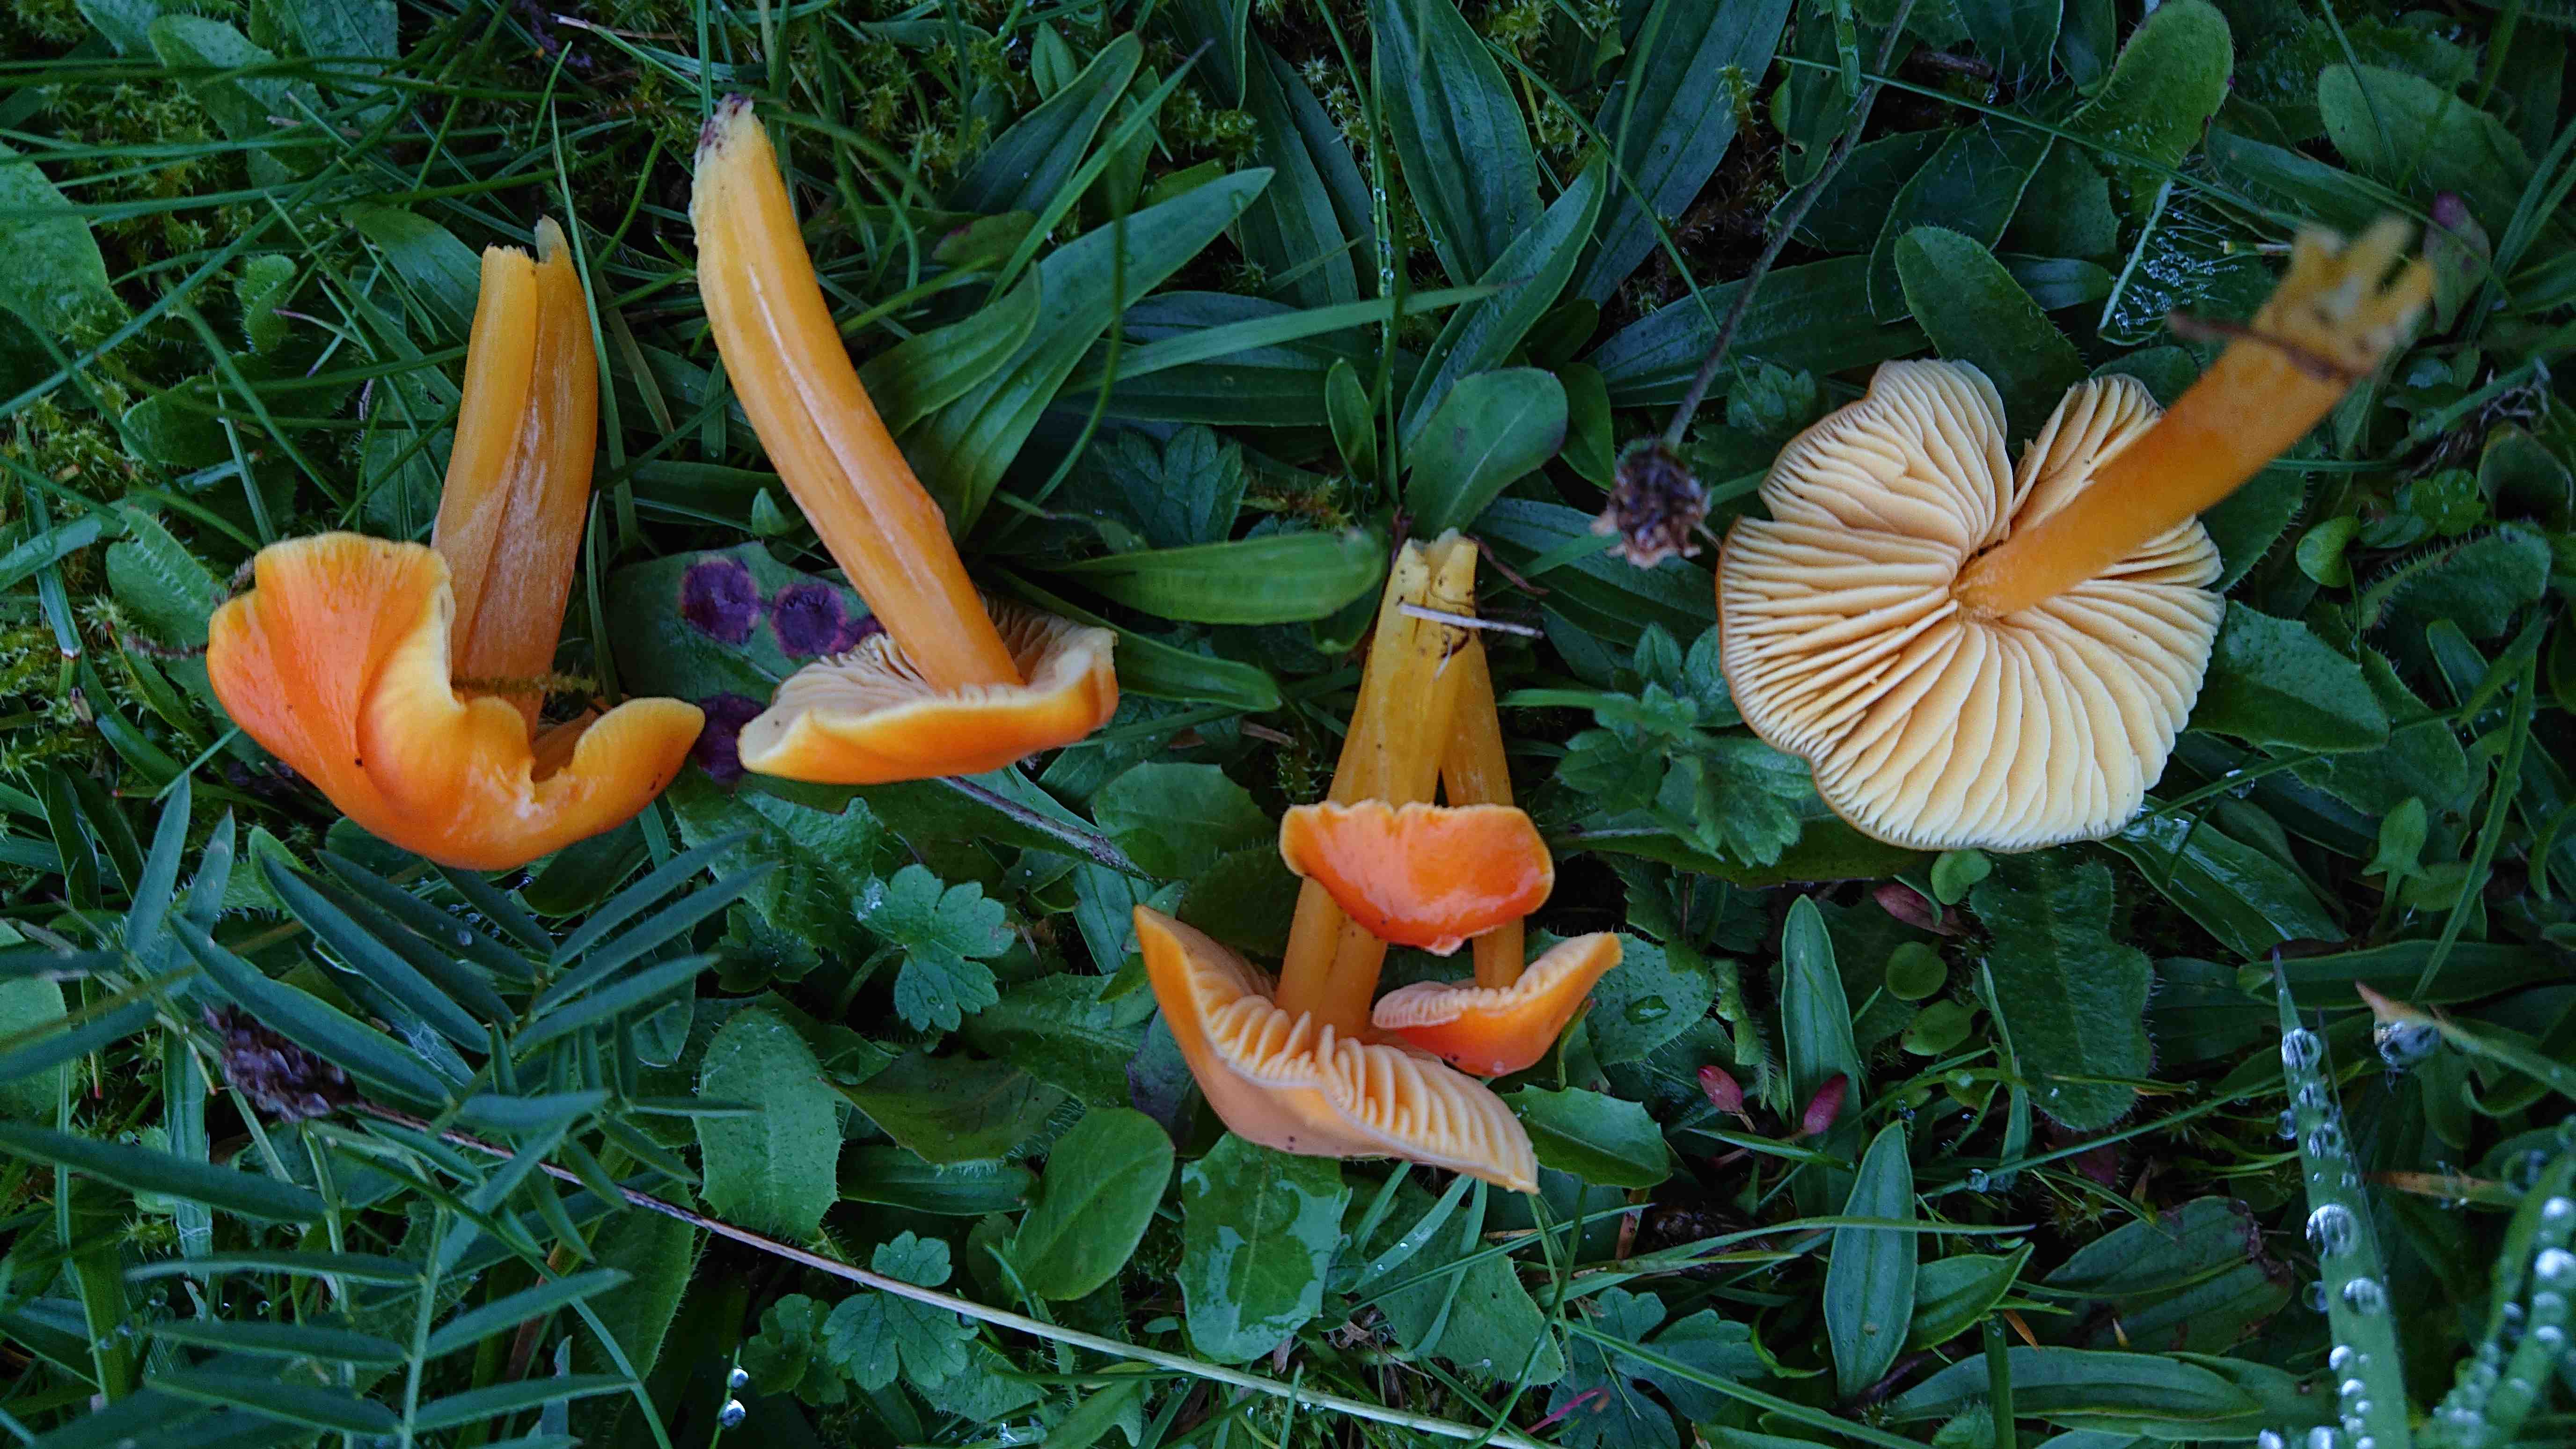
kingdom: Fungi
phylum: Basidiomycota
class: Agaricomycetes
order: Agaricales
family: Hygrophoraceae
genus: Hygrocybe
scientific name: Hygrocybe chlorophana
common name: gul vokshat
